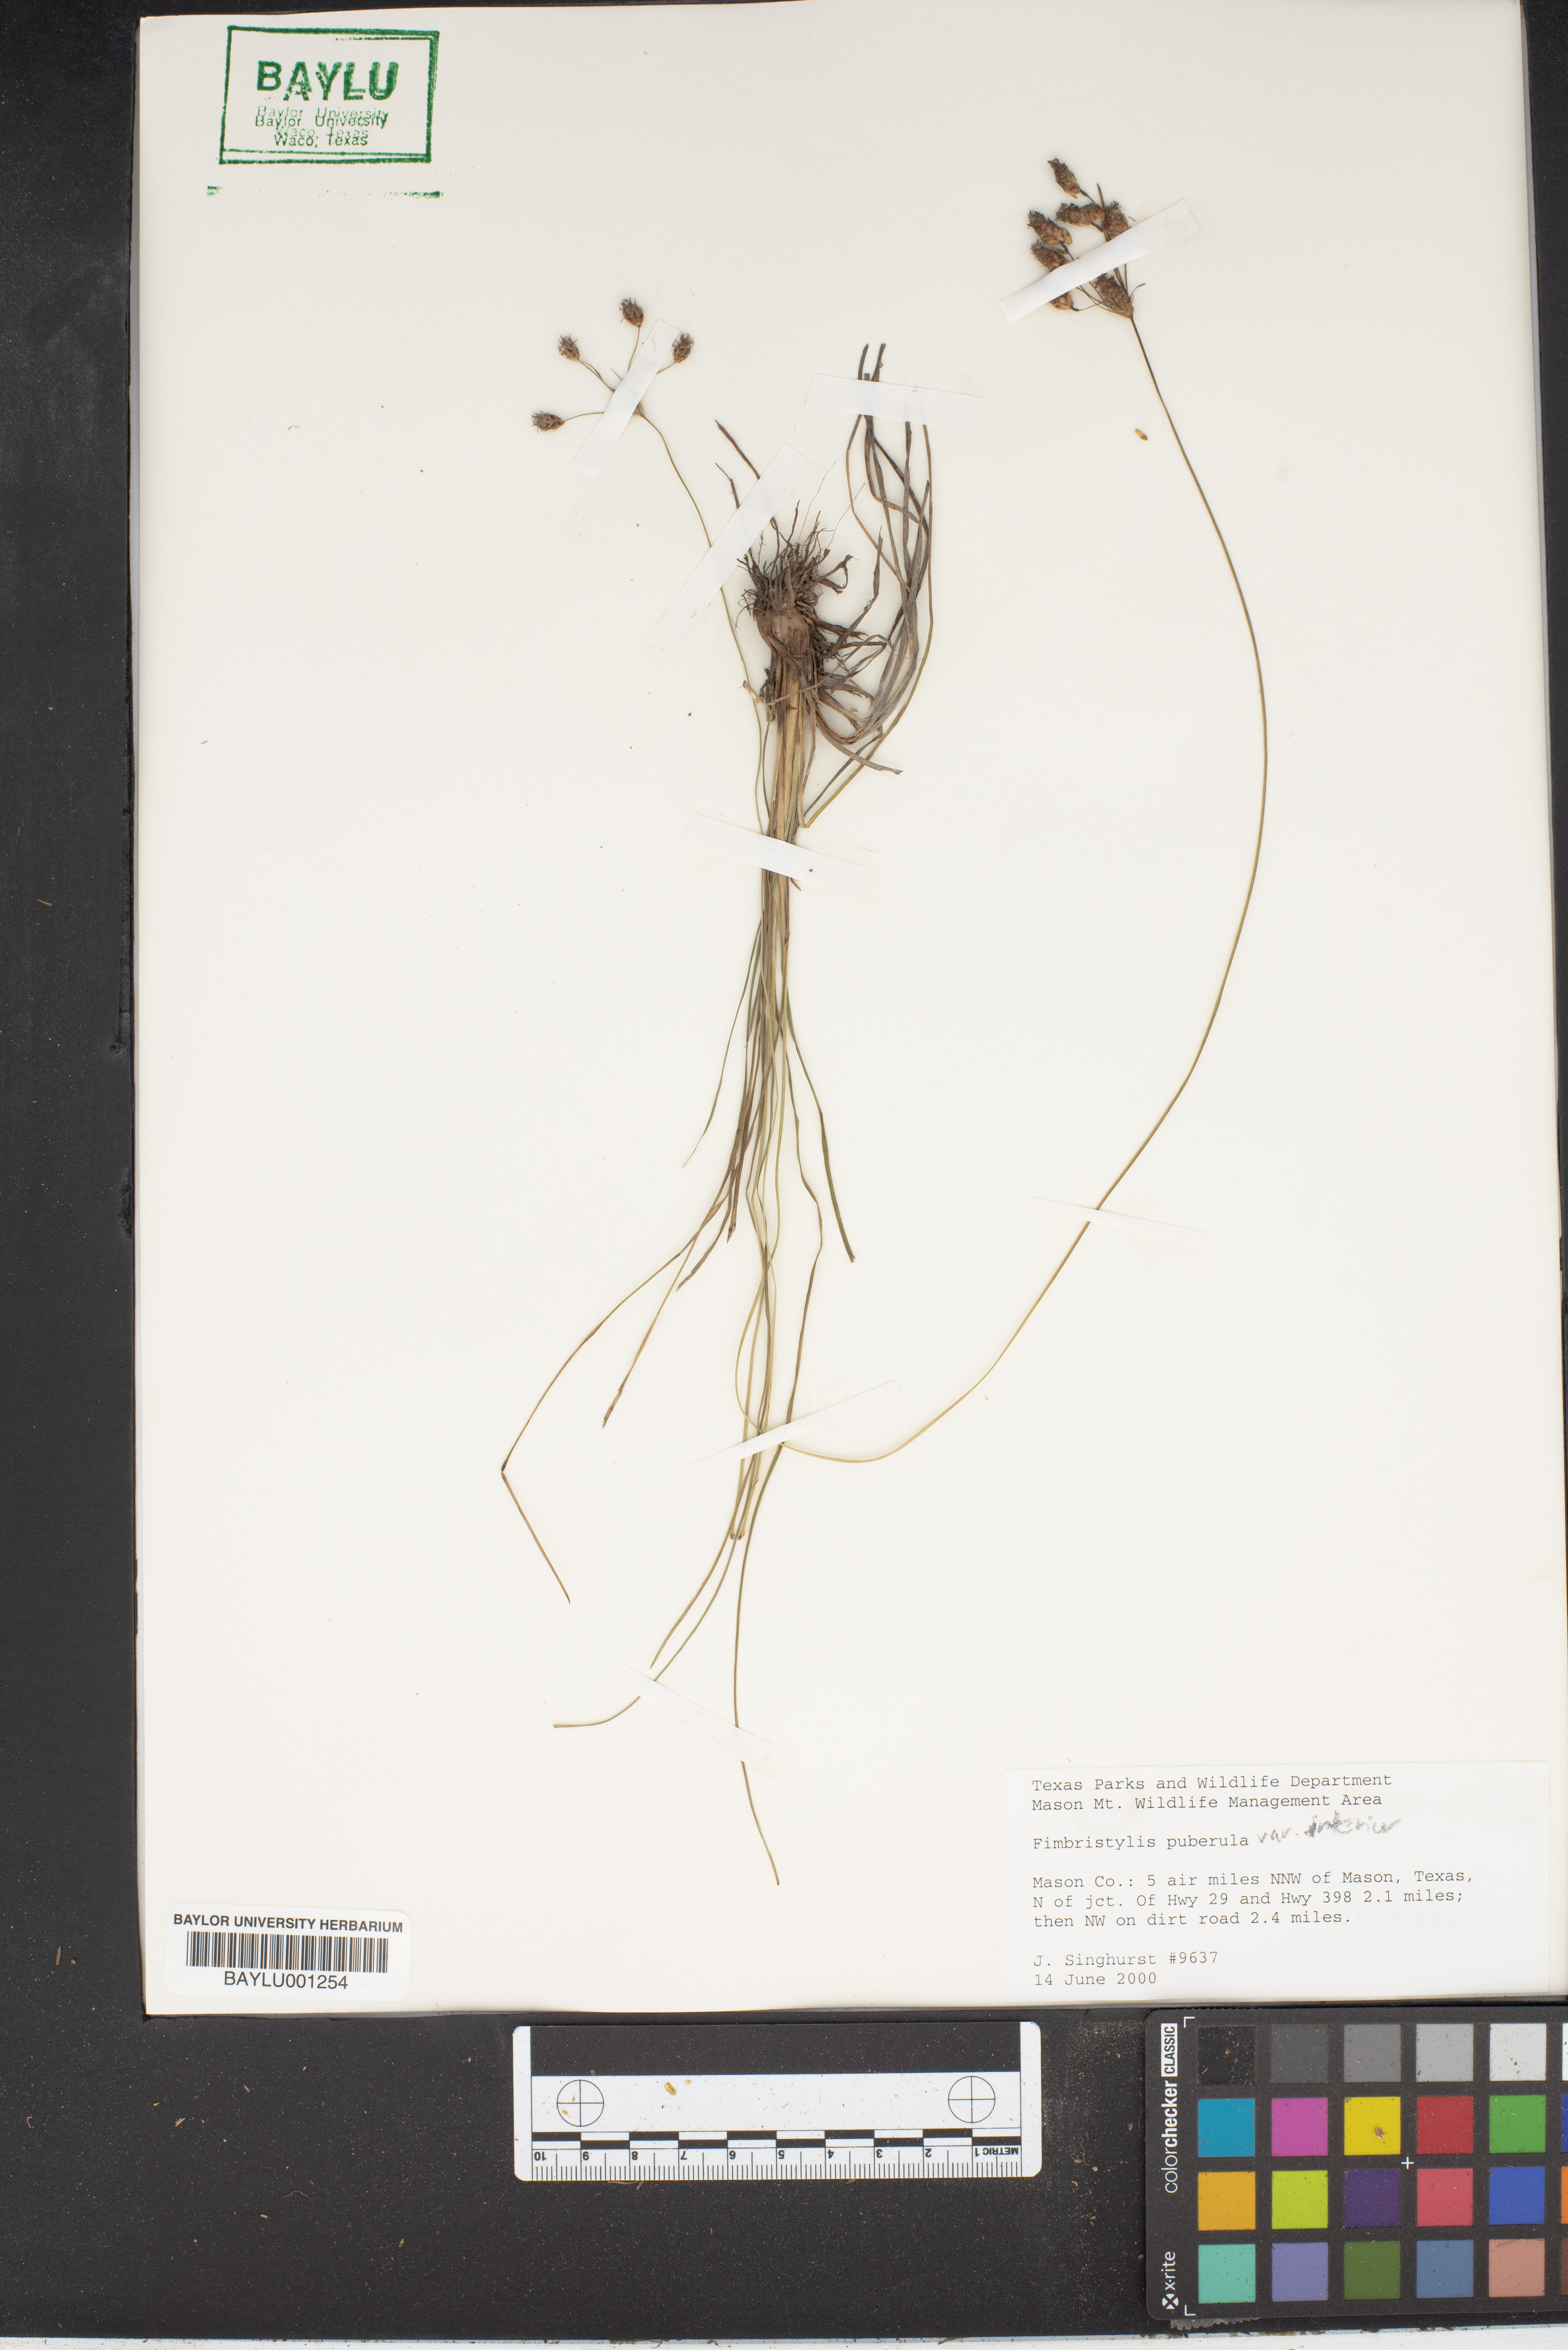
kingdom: Plantae
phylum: Tracheophyta
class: Liliopsida
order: Poales
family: Cyperaceae
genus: Fimbristylis
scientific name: Fimbristylis puberula
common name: Hairy fimbristylis
